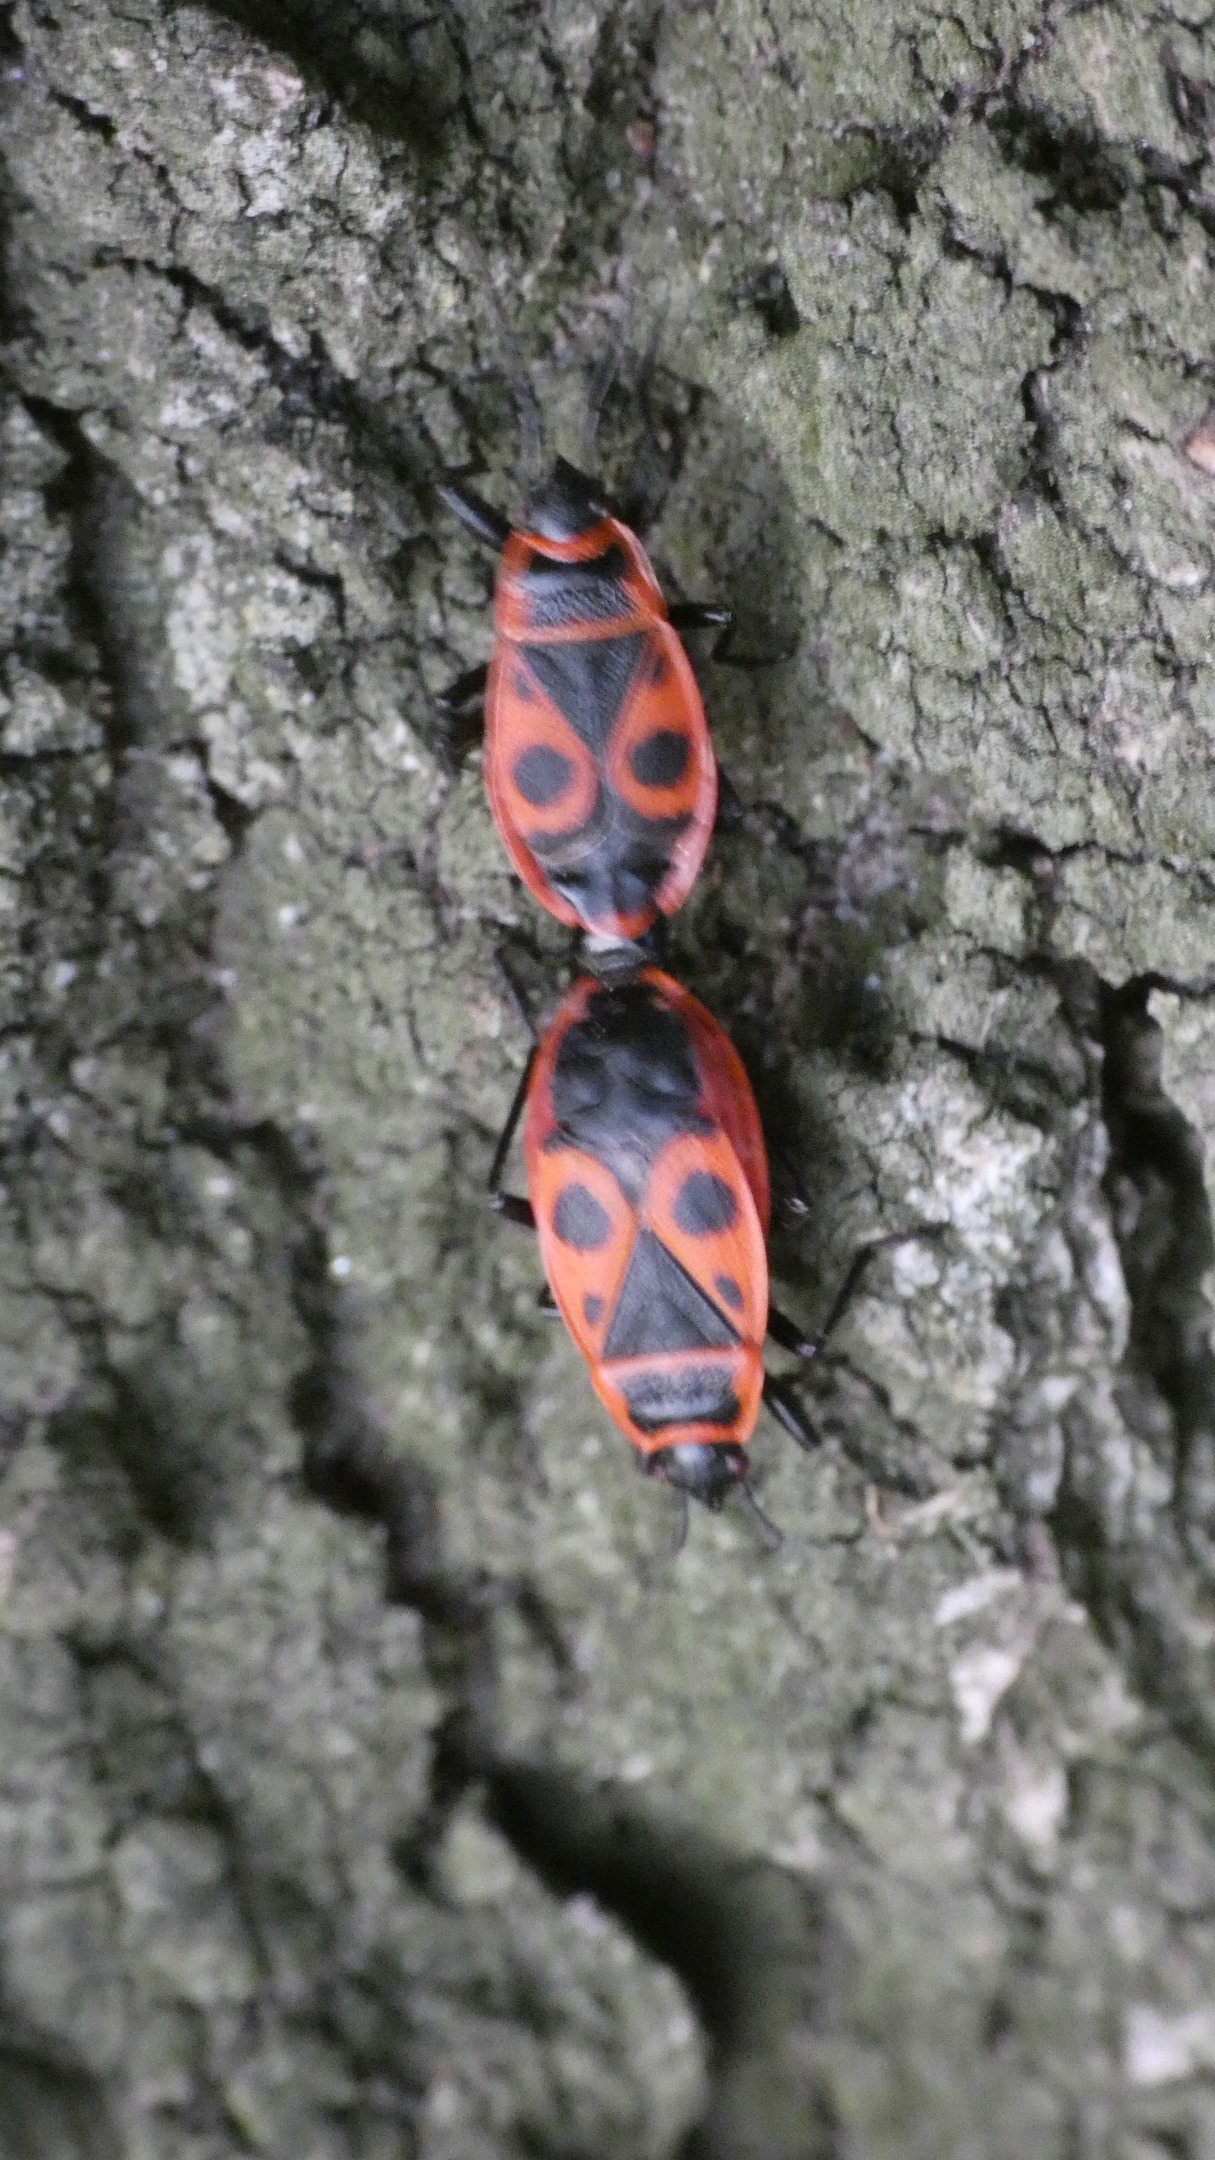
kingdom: Animalia
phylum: Arthropoda
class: Insecta
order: Hemiptera
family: Pyrrhocoridae
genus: Pyrrhocoris
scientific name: Pyrrhocoris apterus
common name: Ildtæge
